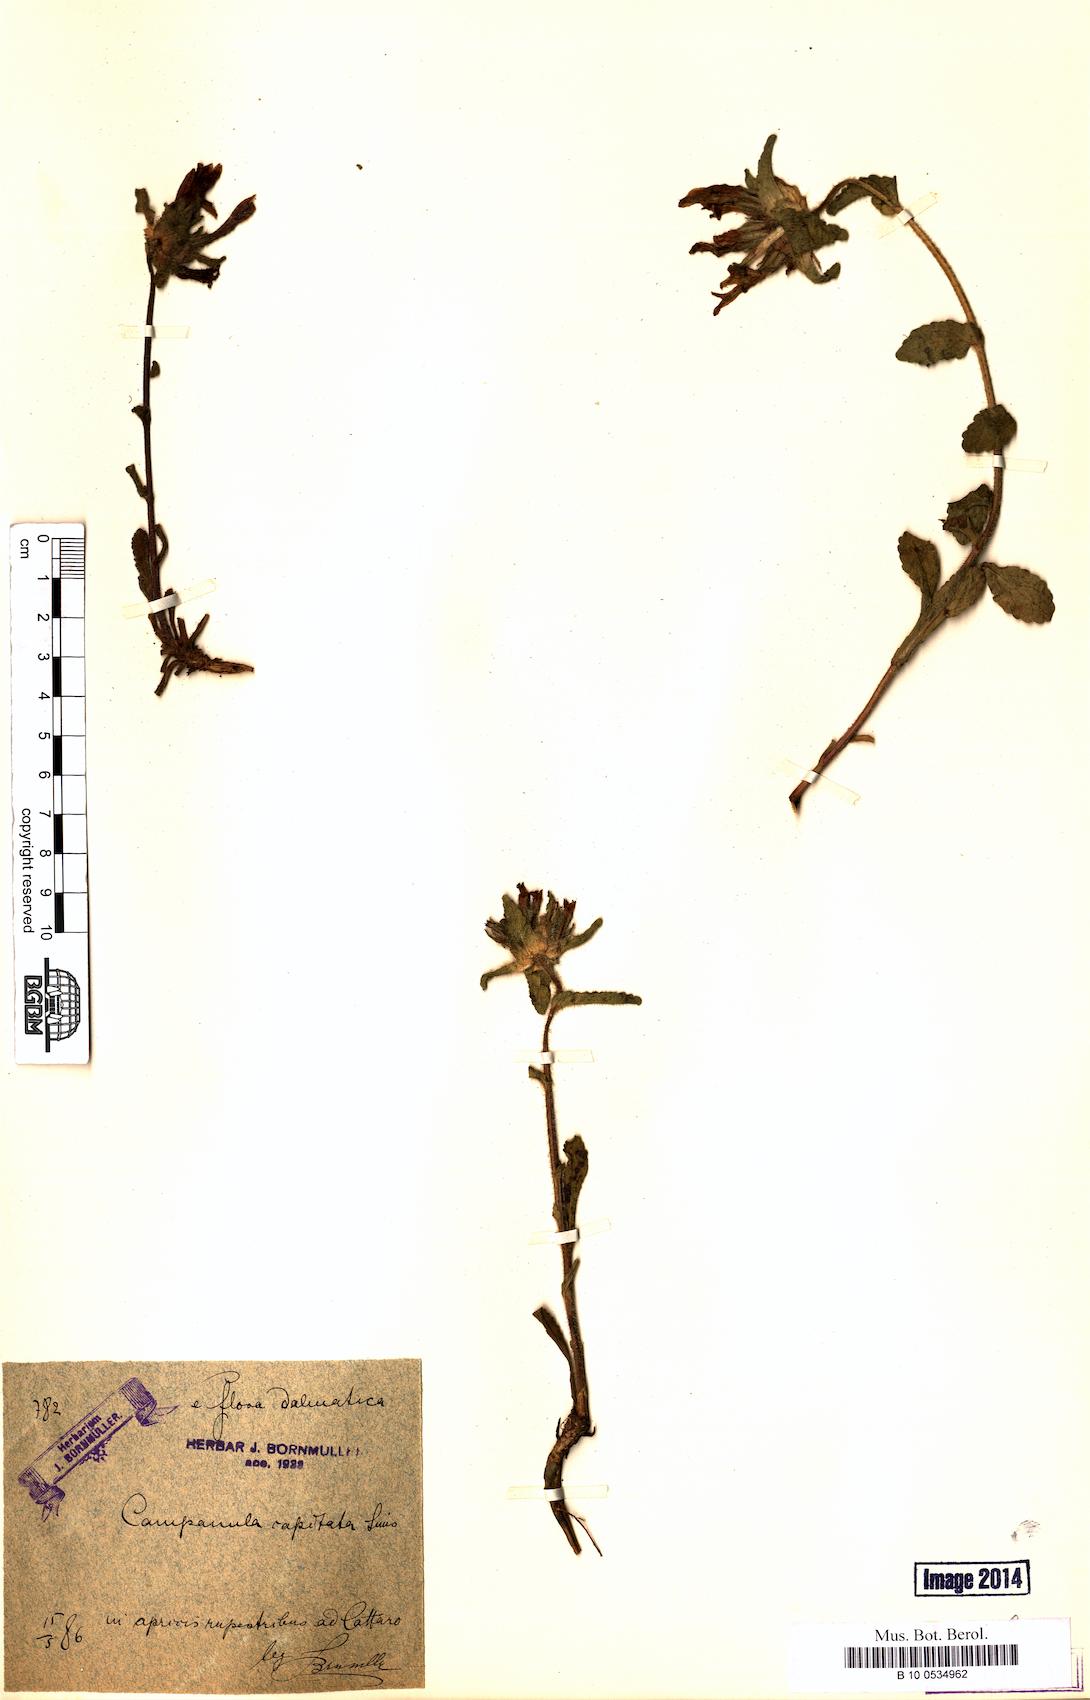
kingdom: Plantae
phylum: Tracheophyta
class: Magnoliopsida
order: Asterales
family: Campanulaceae
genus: Campanula
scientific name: Campanula lingulata
